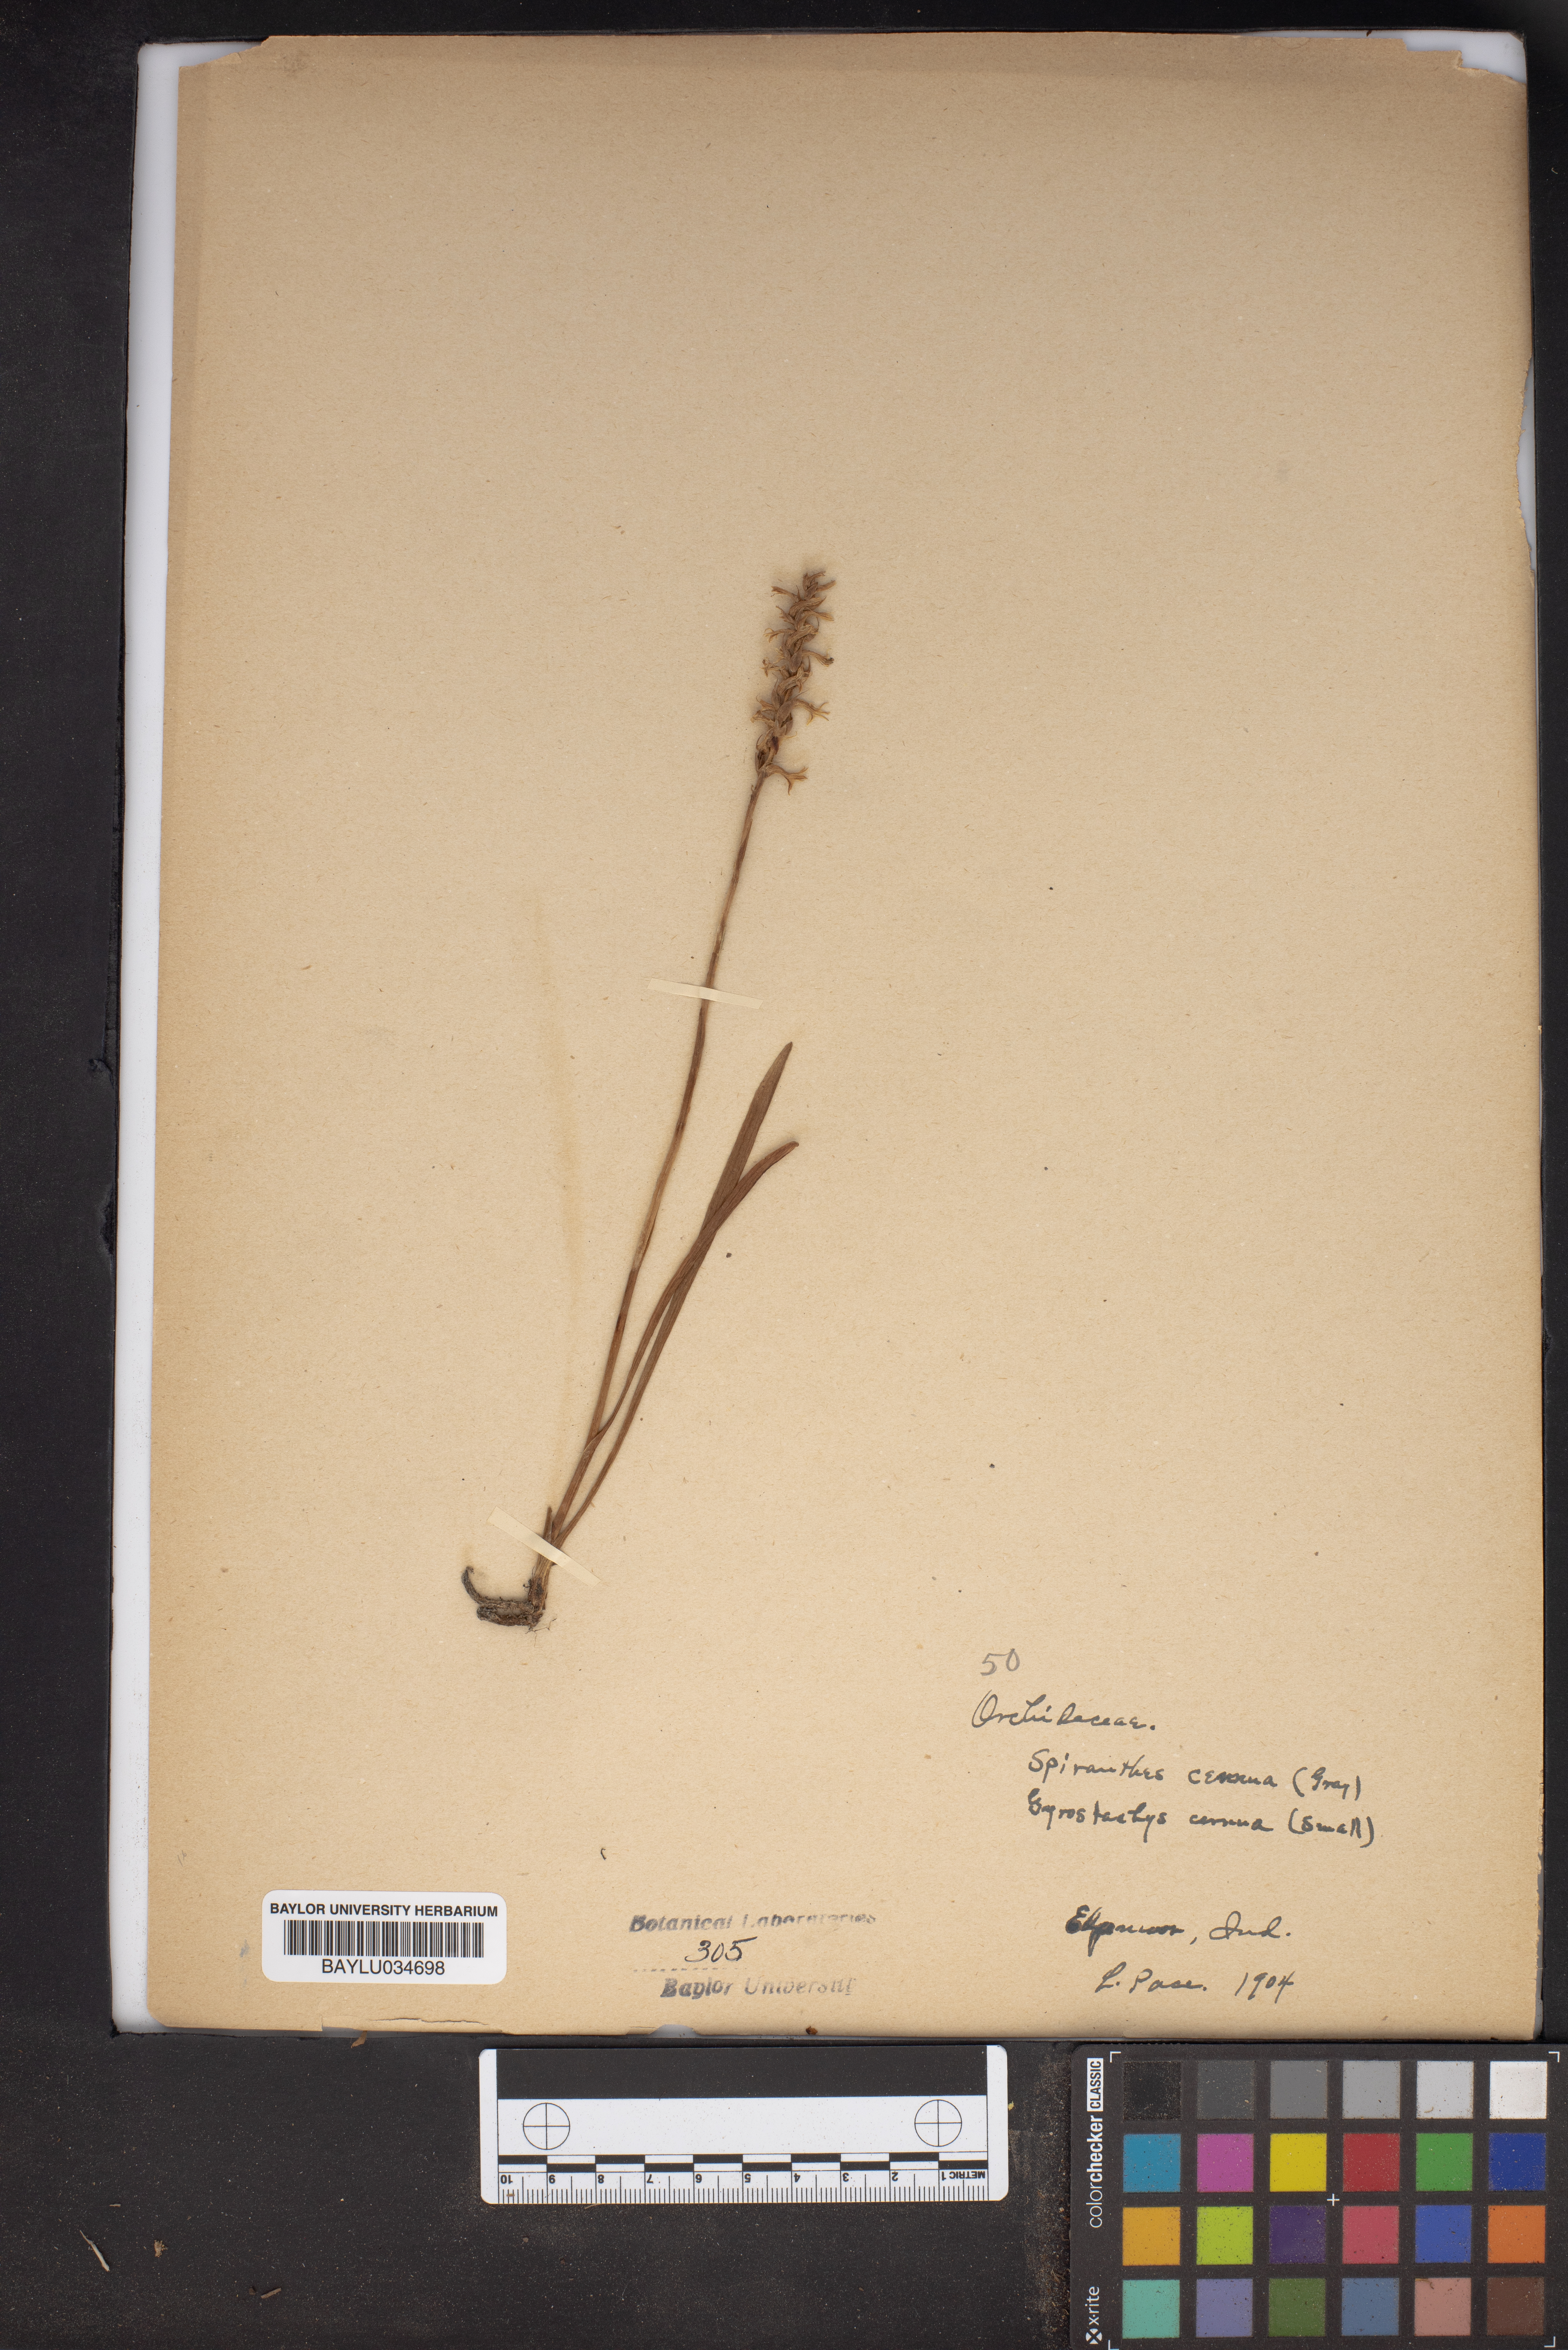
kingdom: Plantae
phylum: Tracheophyta
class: Liliopsida
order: Asparagales
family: Orchidaceae
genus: Sarcoglottis
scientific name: Sarcoglottis cerina
